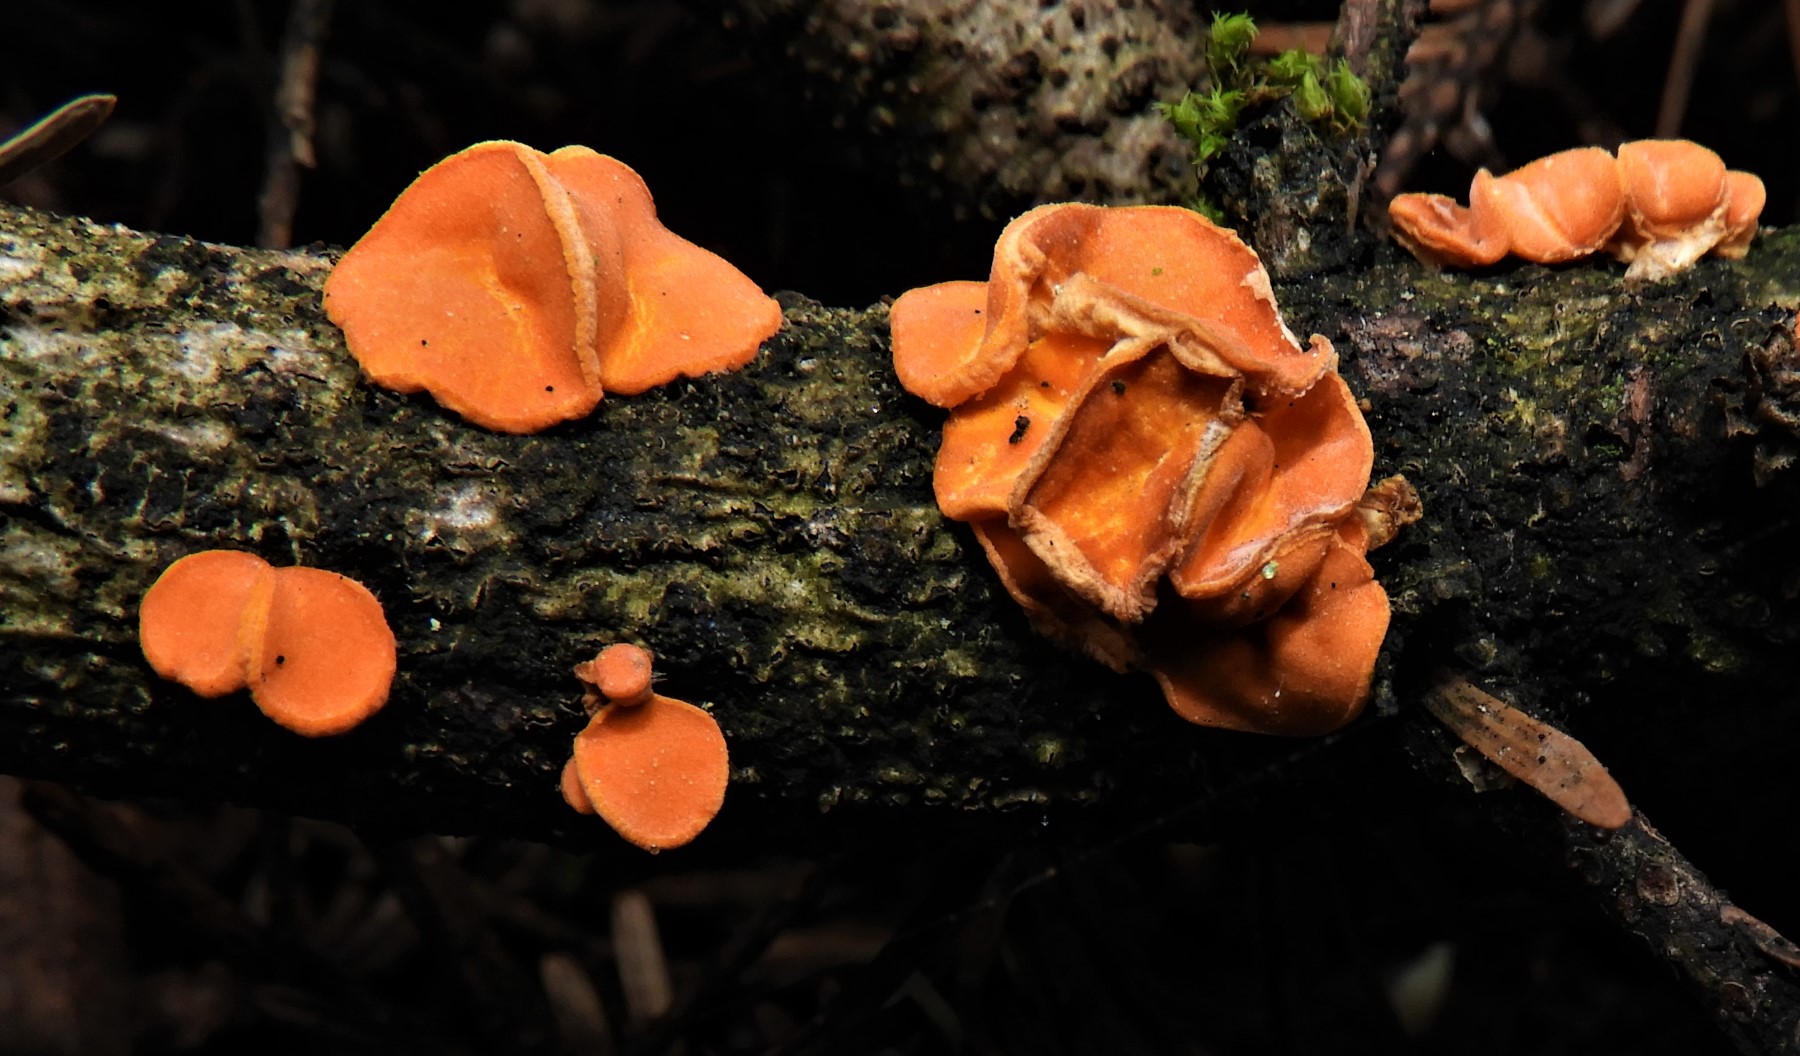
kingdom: Fungi
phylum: Ascomycota
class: Pezizomycetes
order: Pezizales
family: Sarcoscyphaceae
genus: Pithya
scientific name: Pithya vulgaris
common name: stor dukatbæger
